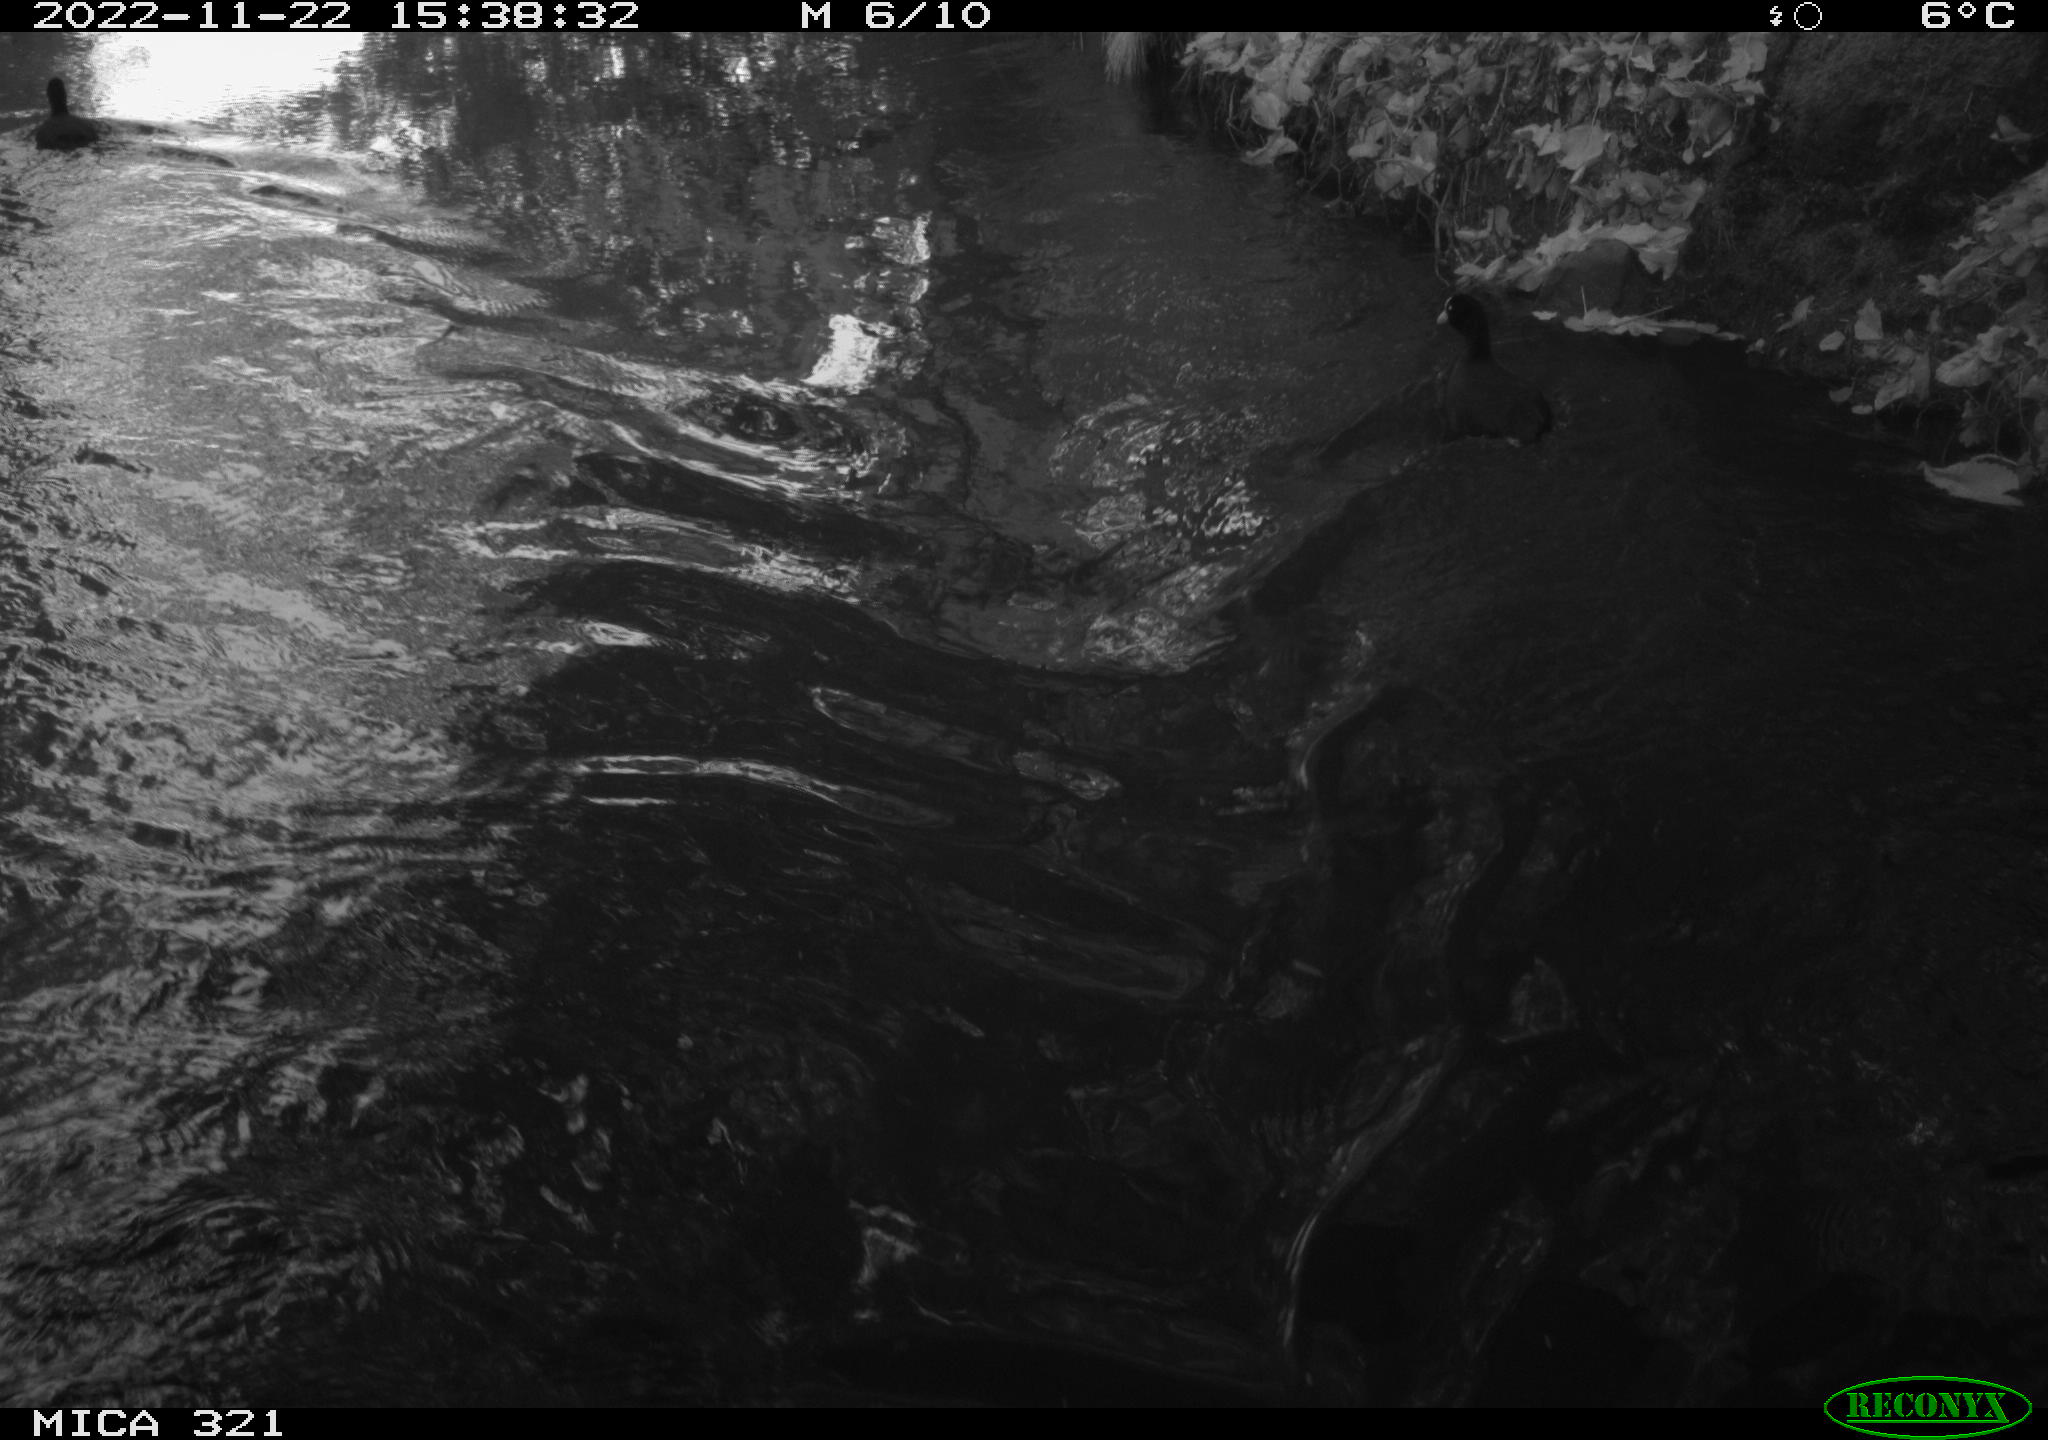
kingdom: Animalia
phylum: Chordata
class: Aves
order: Gruiformes
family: Rallidae
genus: Fulica
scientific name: Fulica atra
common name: Eurasian coot
